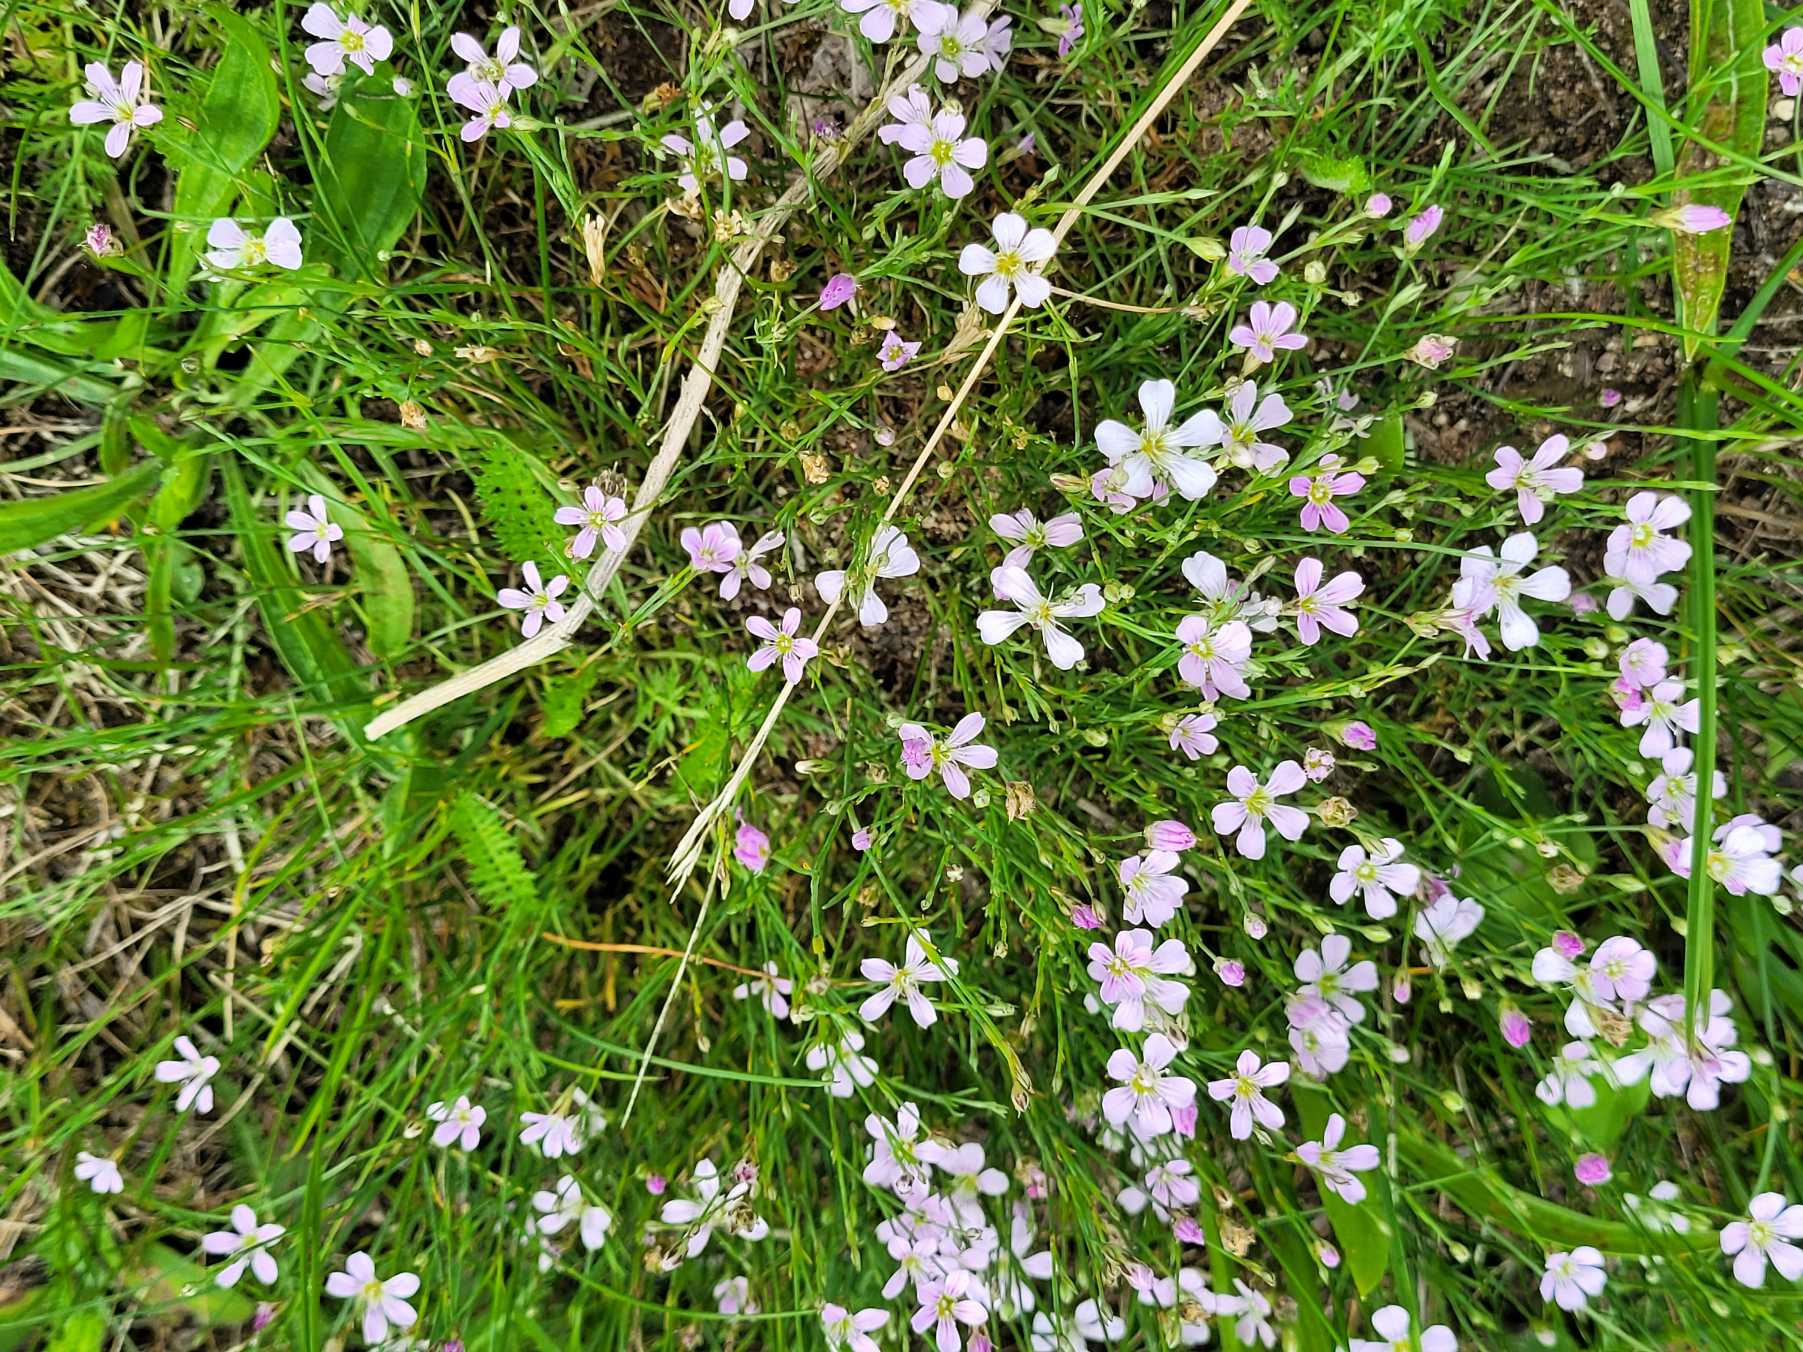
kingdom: Plantae
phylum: Tracheophyta
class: Magnoliopsida
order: Caryophyllales
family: Caryophyllaceae
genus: Petrorhagia
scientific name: Petrorhagia saxifraga
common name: Fjeld-knopnellike
